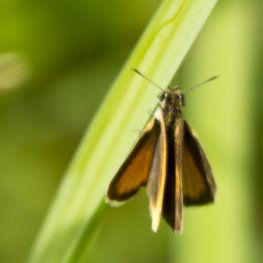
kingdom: Animalia
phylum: Arthropoda
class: Insecta
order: Lepidoptera
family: Hesperiidae
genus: Ancyloxypha
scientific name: Ancyloxypha numitor
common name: Least Skipper
